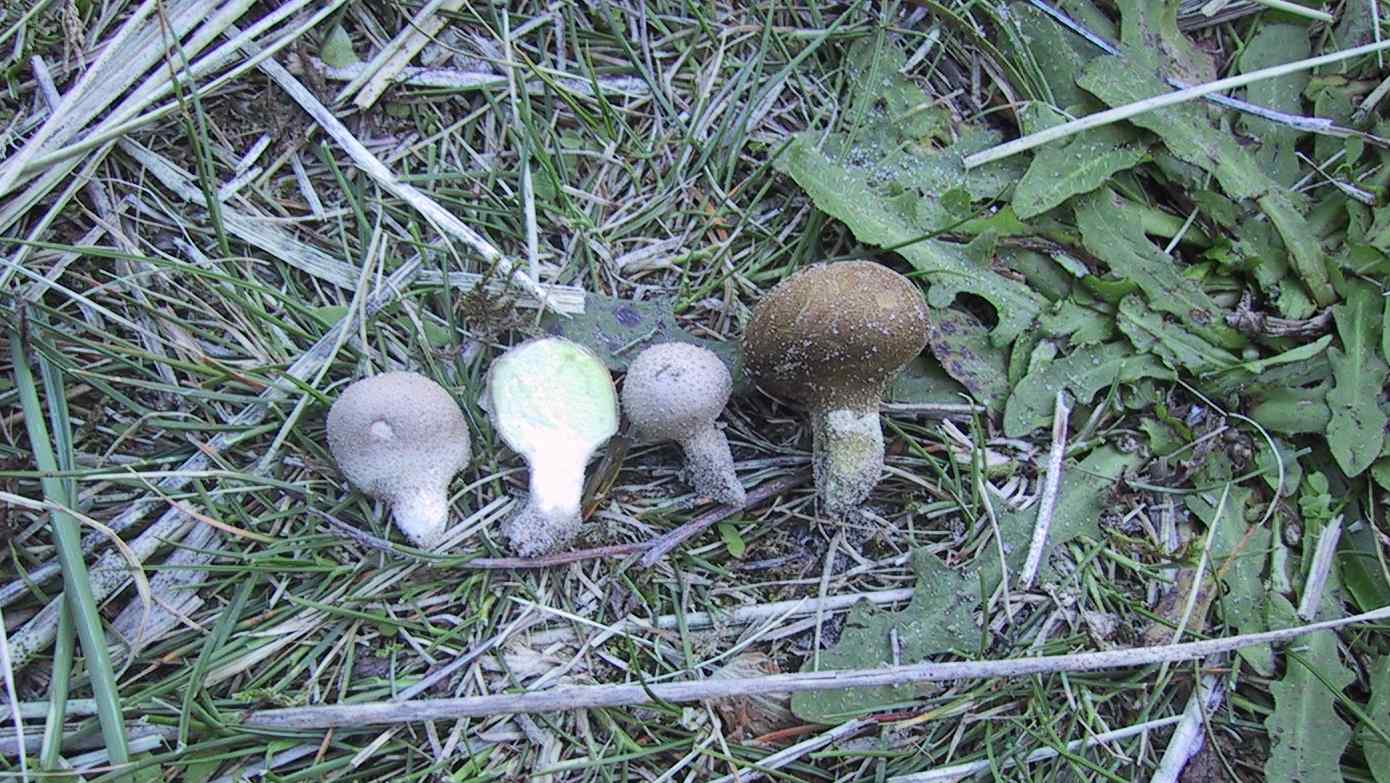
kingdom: Fungi
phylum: Basidiomycota
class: Agaricomycetes
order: Agaricales
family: Lycoperdaceae
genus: Lycoperdon
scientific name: Lycoperdon lividum
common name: mark-støvbold
